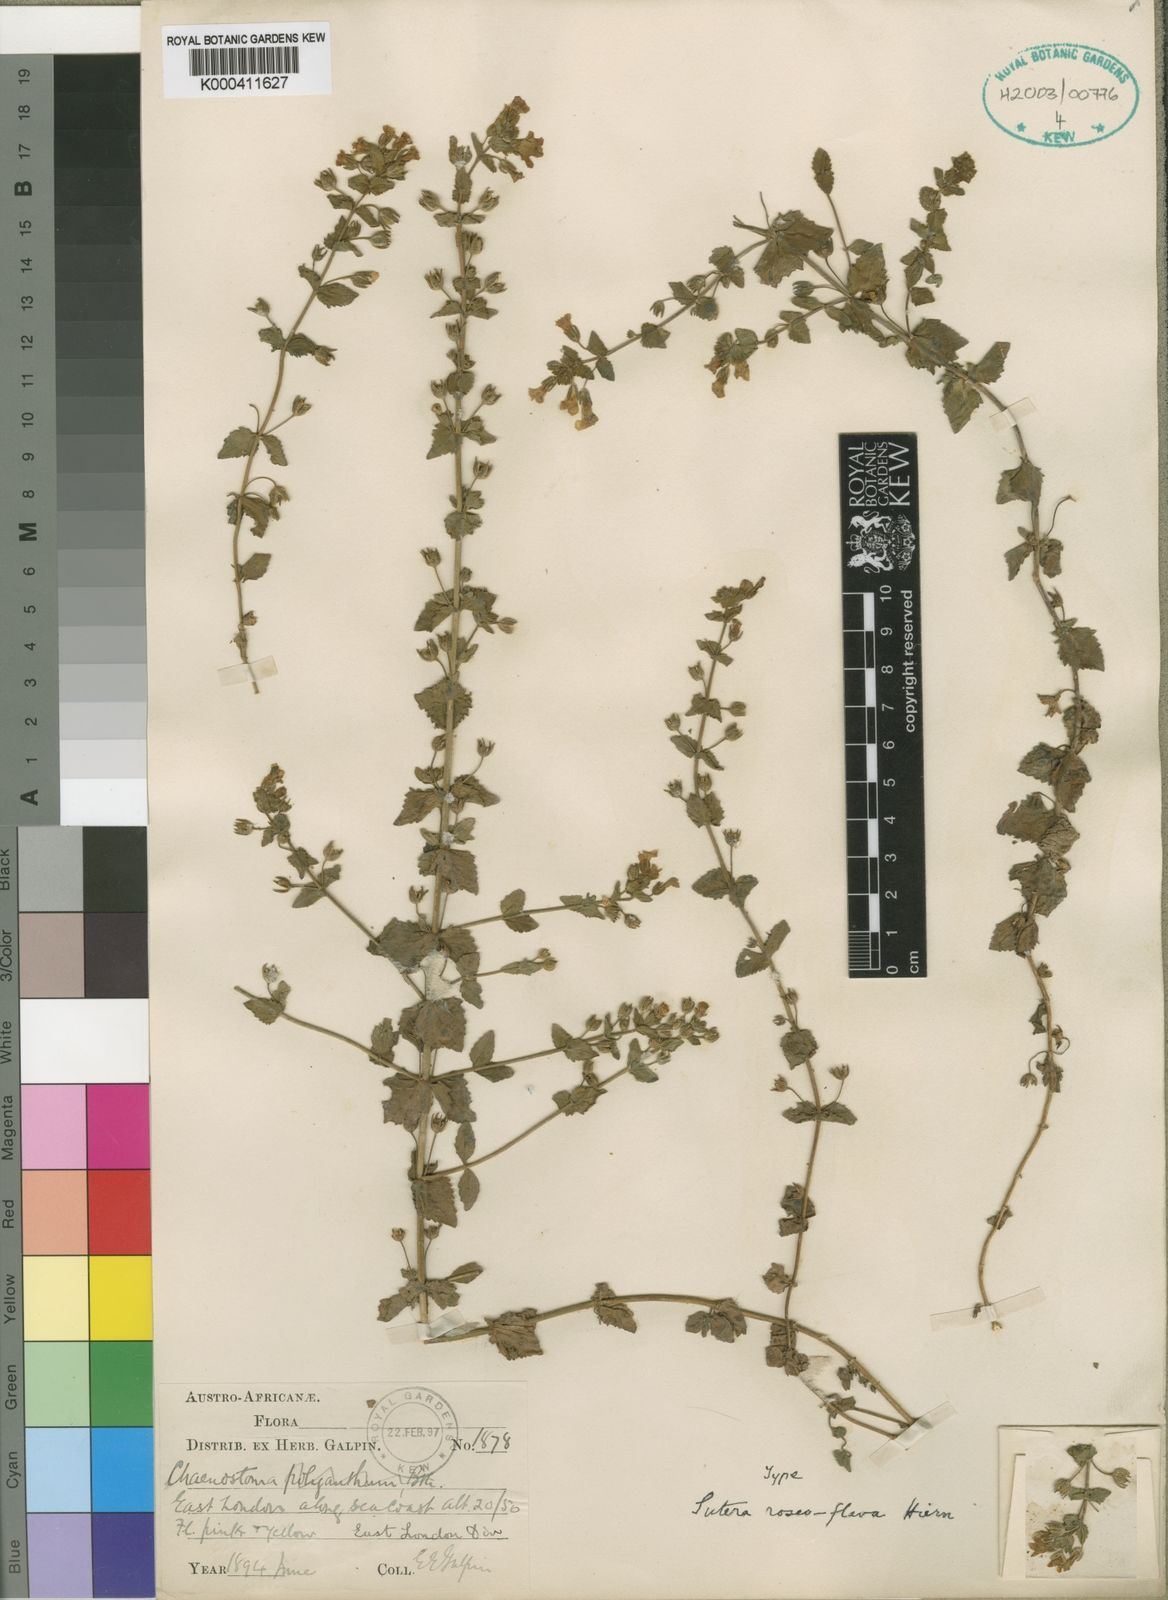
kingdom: Plantae
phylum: Tracheophyta
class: Magnoliopsida
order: Lamiales
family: Scrophulariaceae
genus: Chaenostoma
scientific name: Chaenostoma roseoflavum
